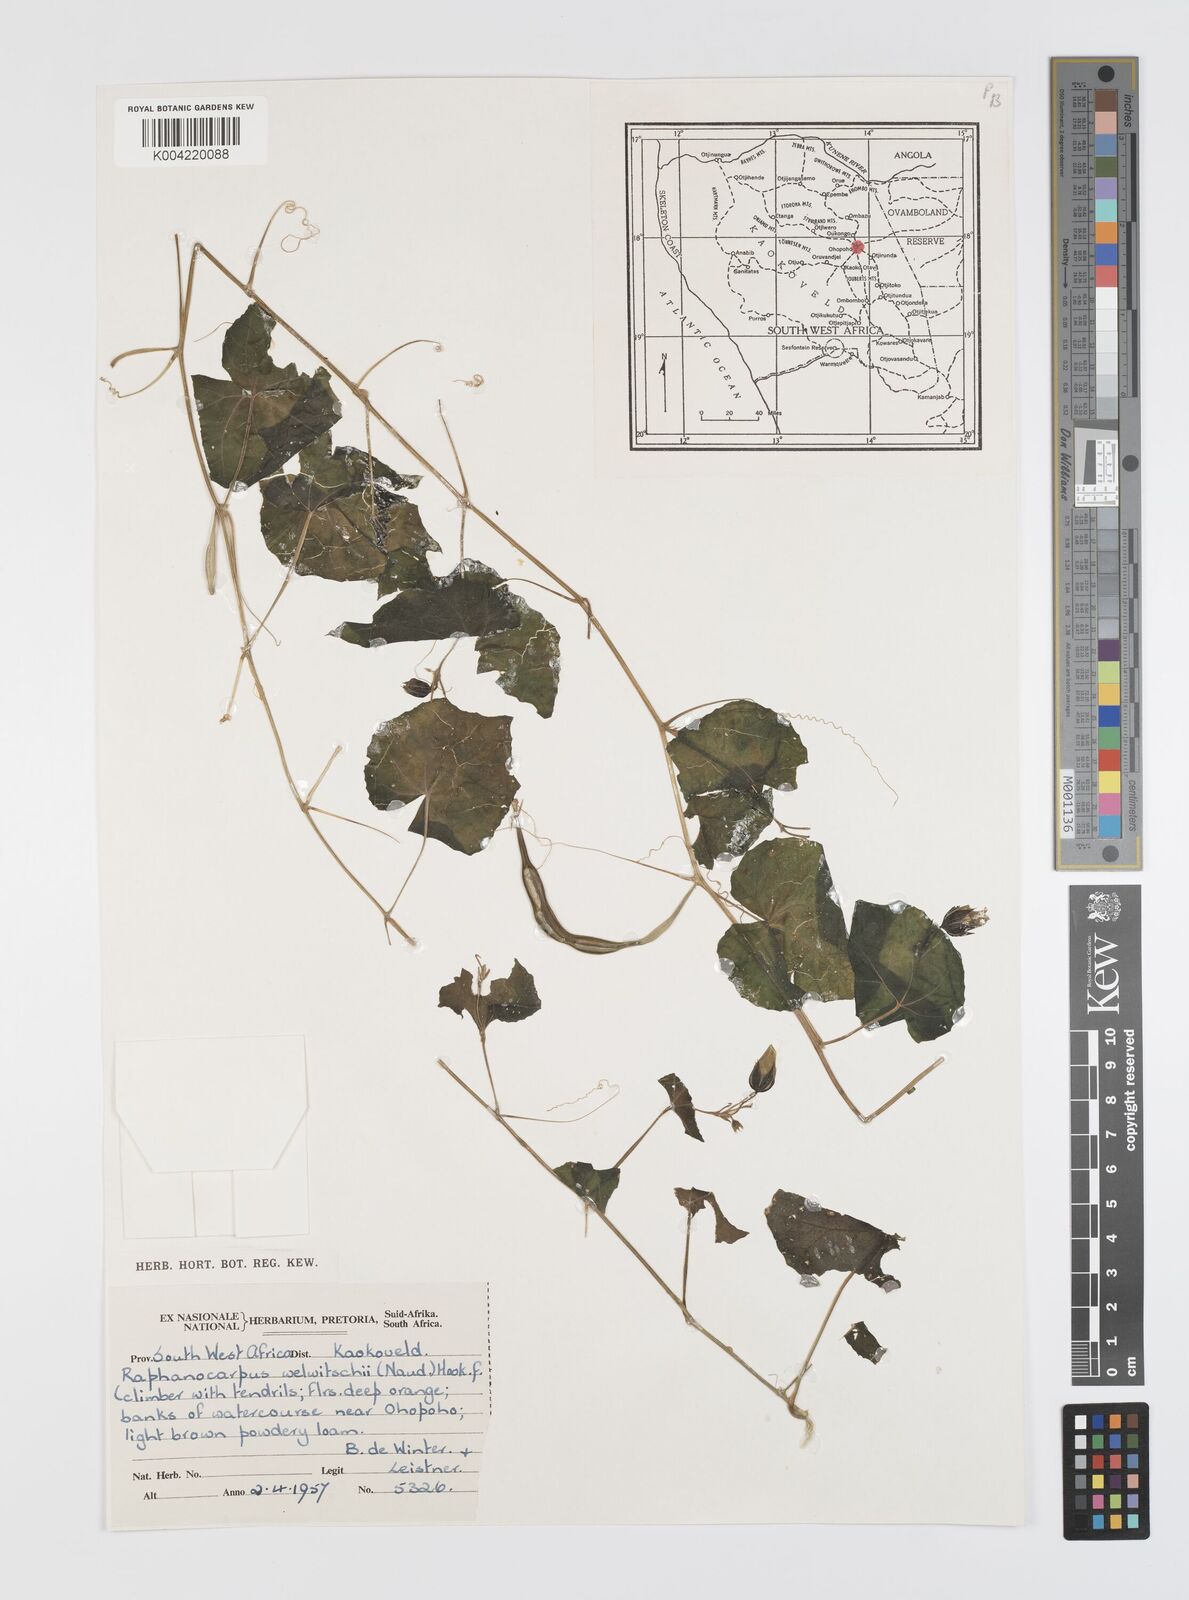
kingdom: Plantae
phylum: Tracheophyta
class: Magnoliopsida
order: Cucurbitales
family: Cucurbitaceae
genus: Momordica
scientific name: Momordica
